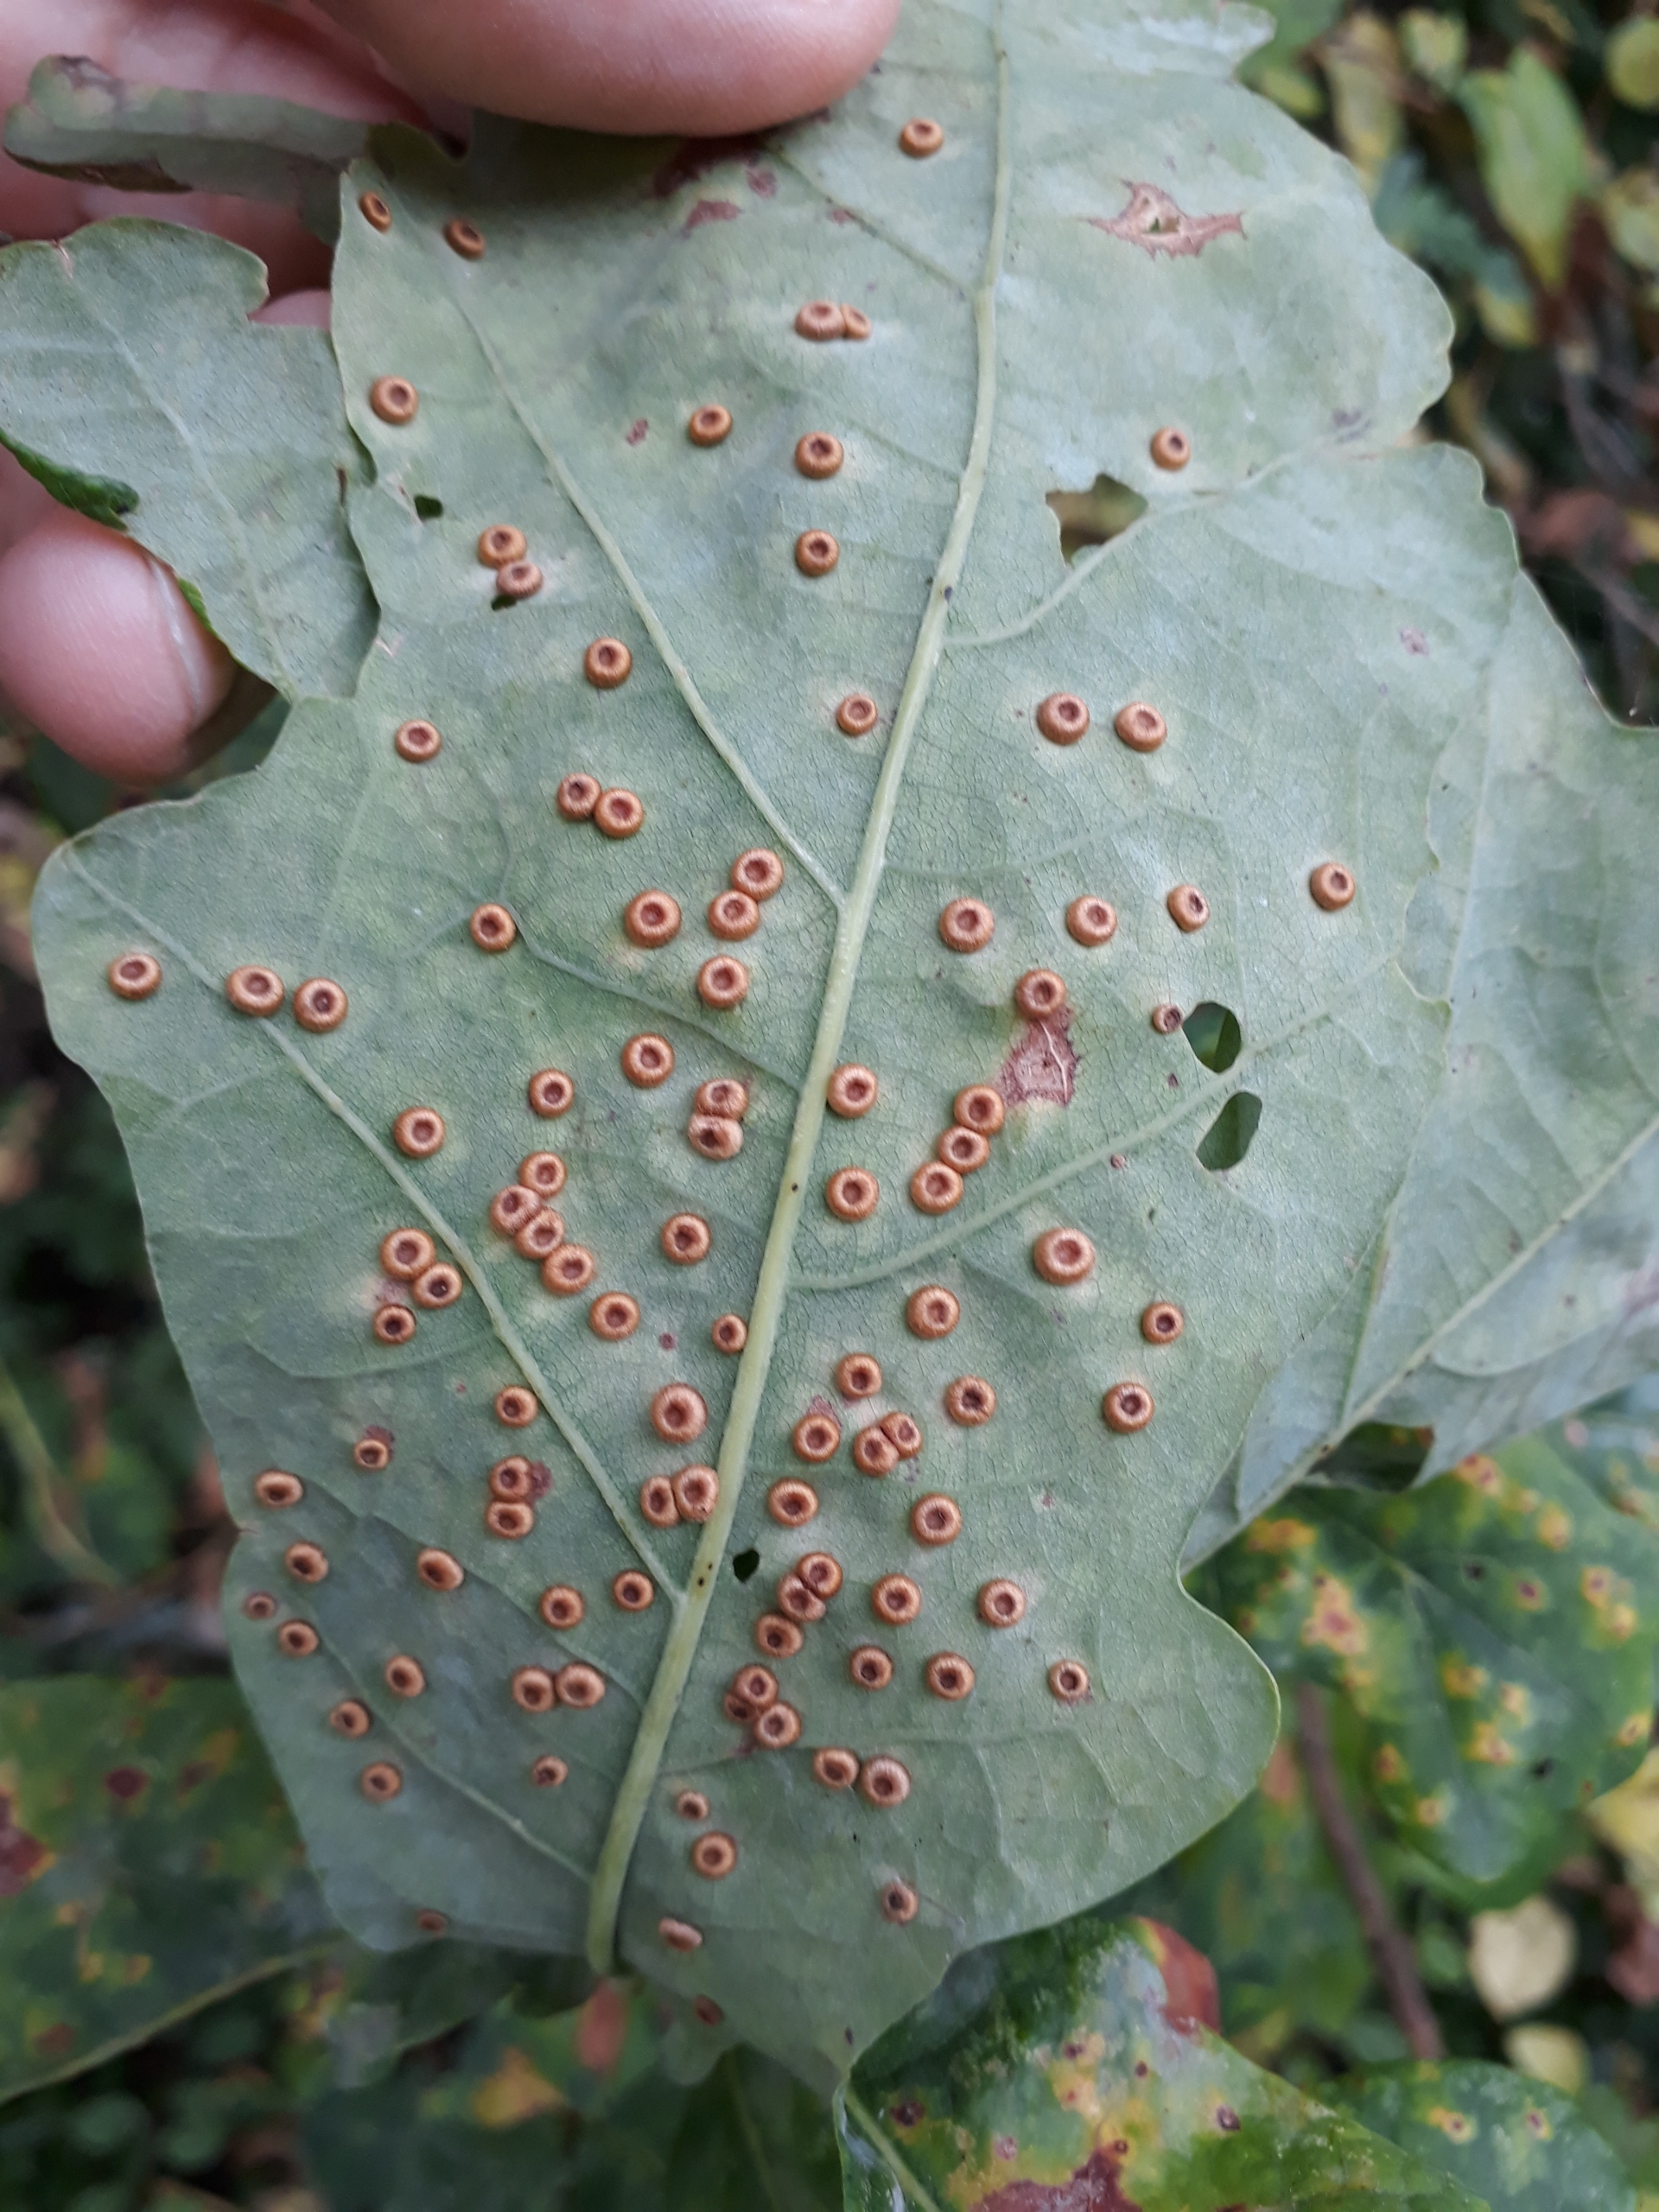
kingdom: Animalia
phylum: Arthropoda
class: Insecta
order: Hymenoptera
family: Cynipidae
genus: Neuroterus
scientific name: Neuroterus numismalis
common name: Knapgalhveps
